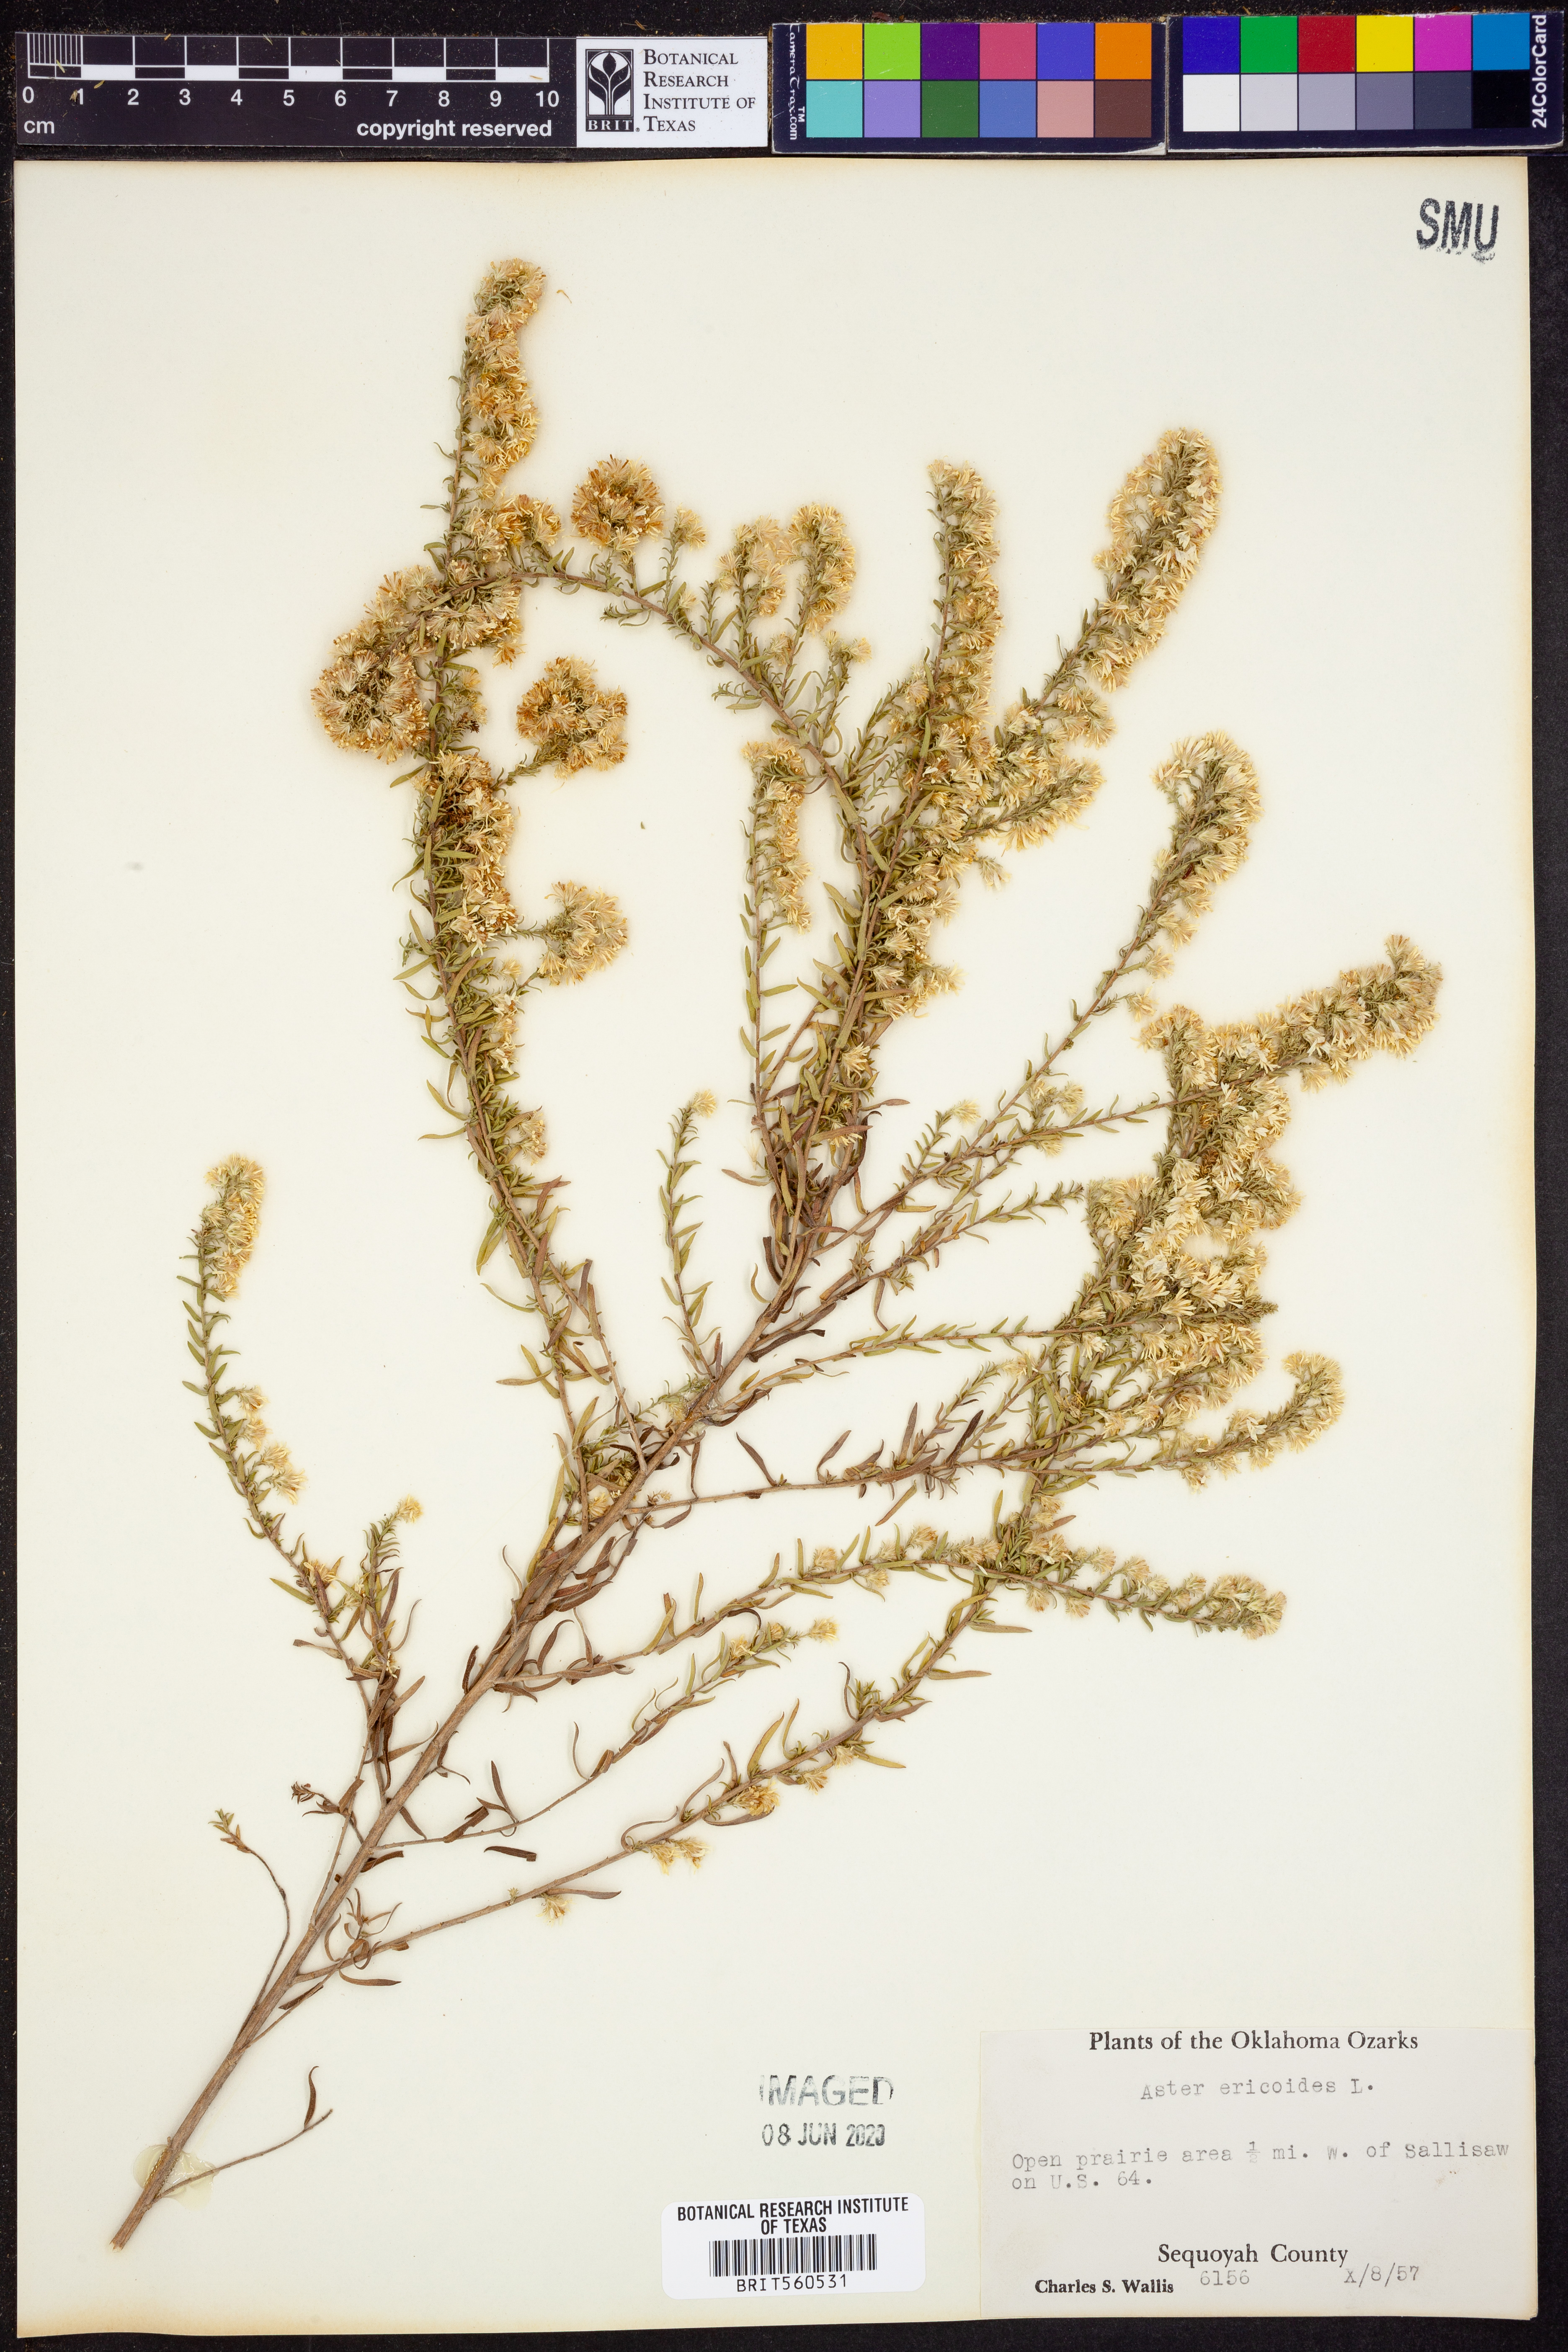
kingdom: Plantae
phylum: Tracheophyta
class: Magnoliopsida
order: Asterales
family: Asteraceae
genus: Symphyotrichum
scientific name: Symphyotrichum ericoides
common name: Heath aster
